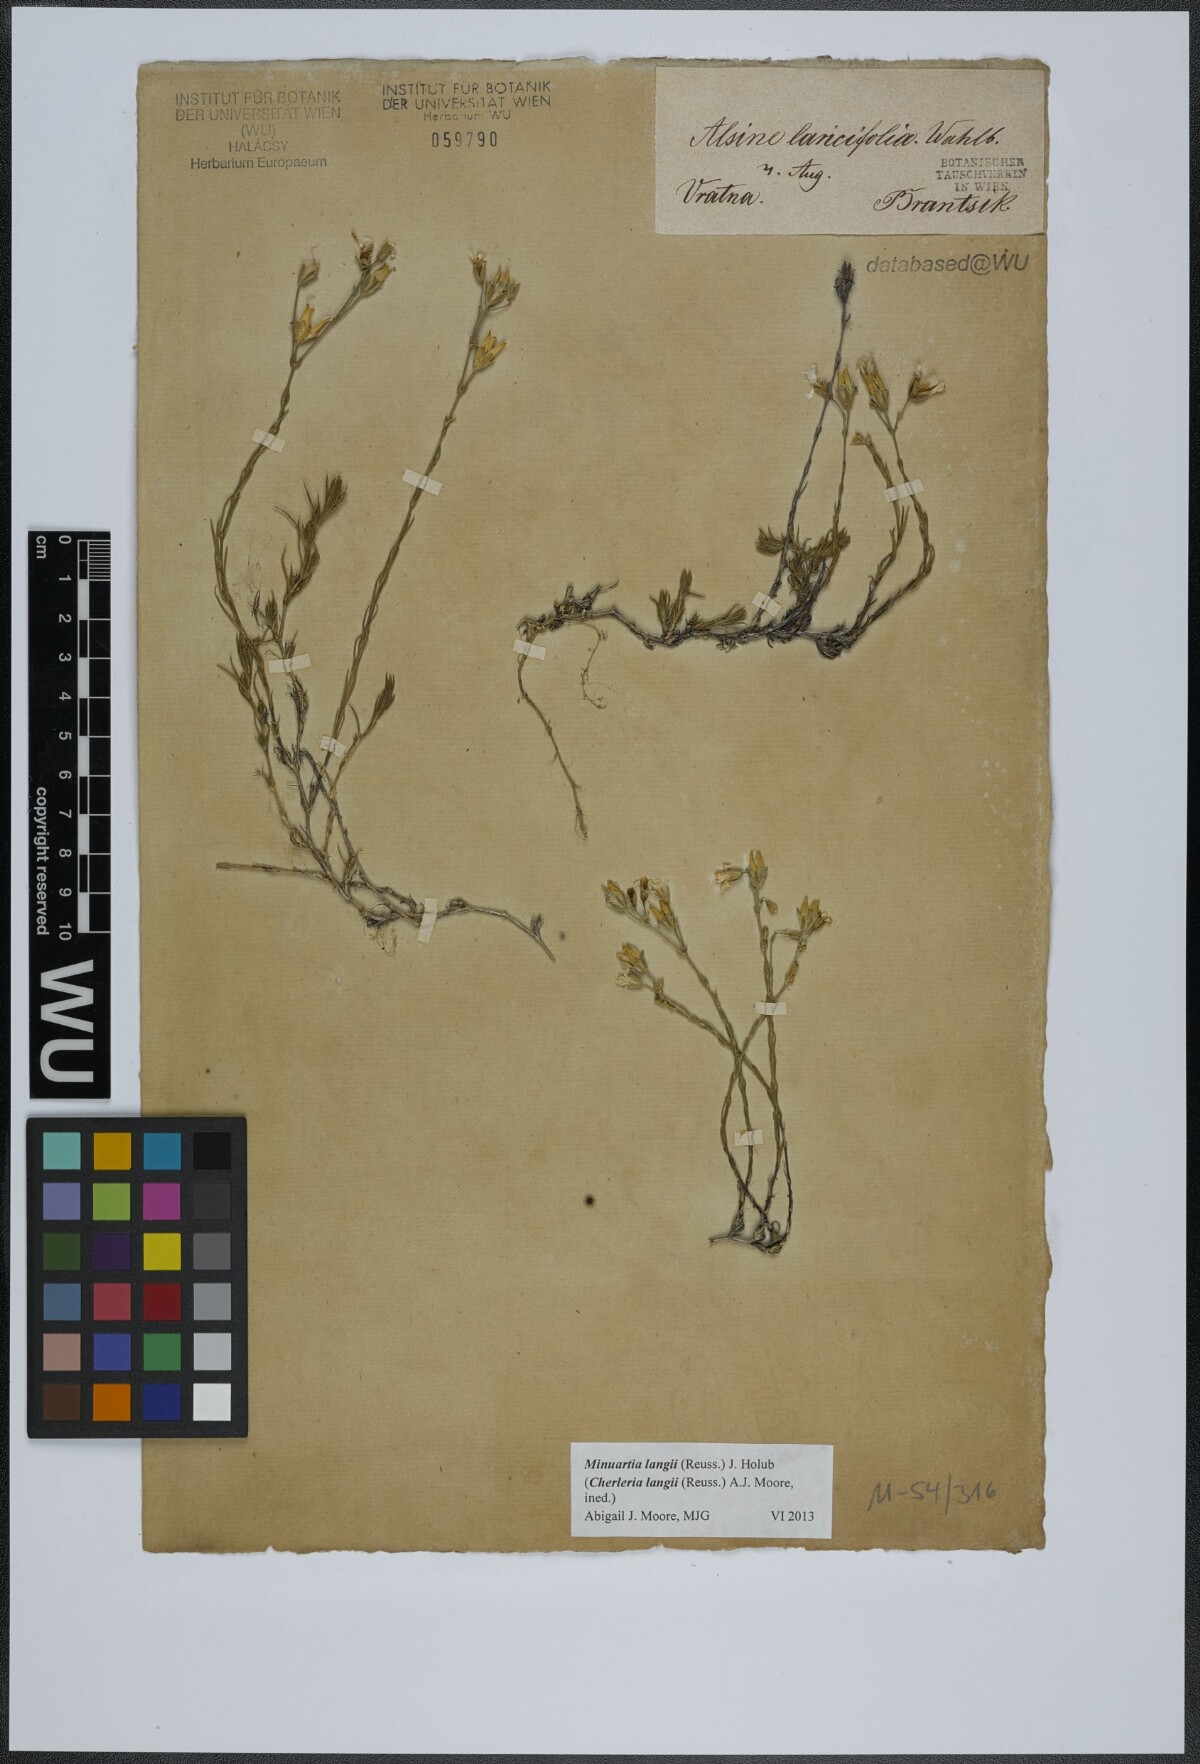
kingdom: Plantae
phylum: Tracheophyta
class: Magnoliopsida
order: Caryophyllales
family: Caryophyllaceae
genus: Cherleria
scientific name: Cherleria langii
